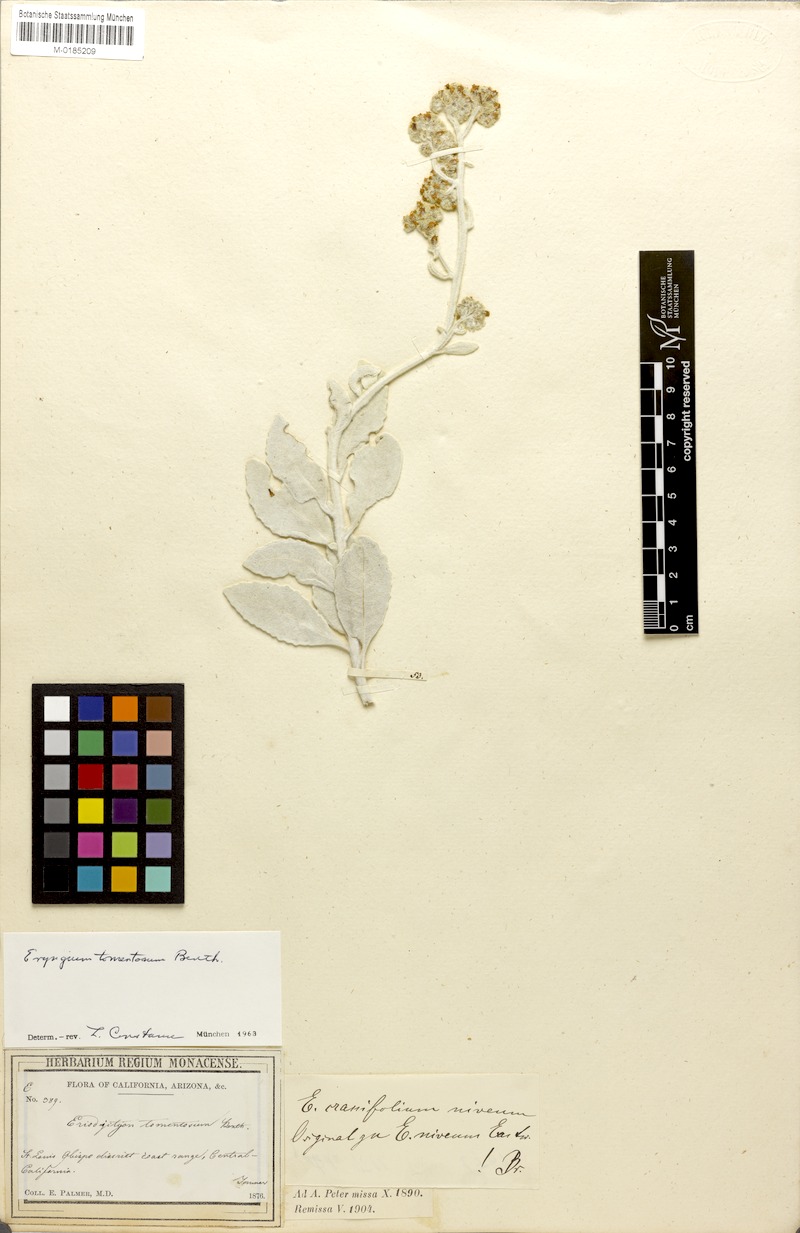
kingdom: Plantae
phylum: Tracheophyta
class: Magnoliopsida
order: Boraginales
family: Namaceae
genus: Eriodictyon
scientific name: Eriodictyon tomentosum
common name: Woolly yerba-santa
